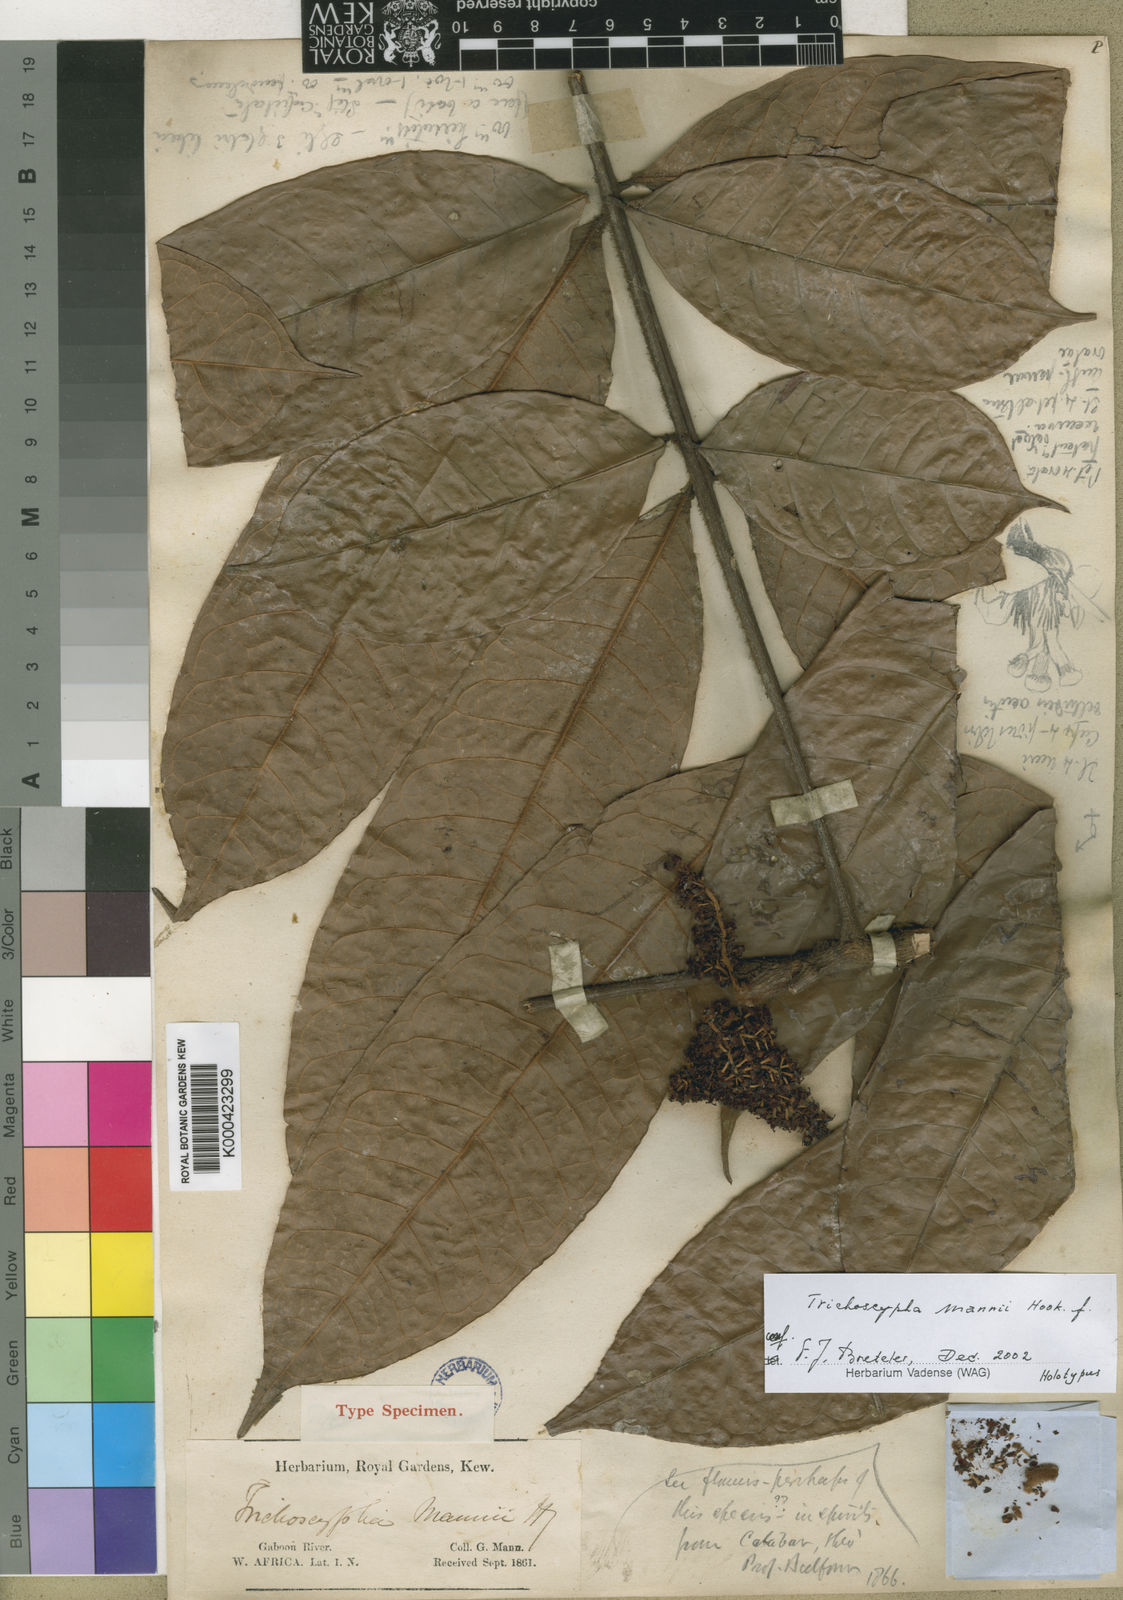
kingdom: Plantae
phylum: Tracheophyta
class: Magnoliopsida
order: Sapindales
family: Anacardiaceae
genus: Trichoscypha
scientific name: Trichoscypha mannii
